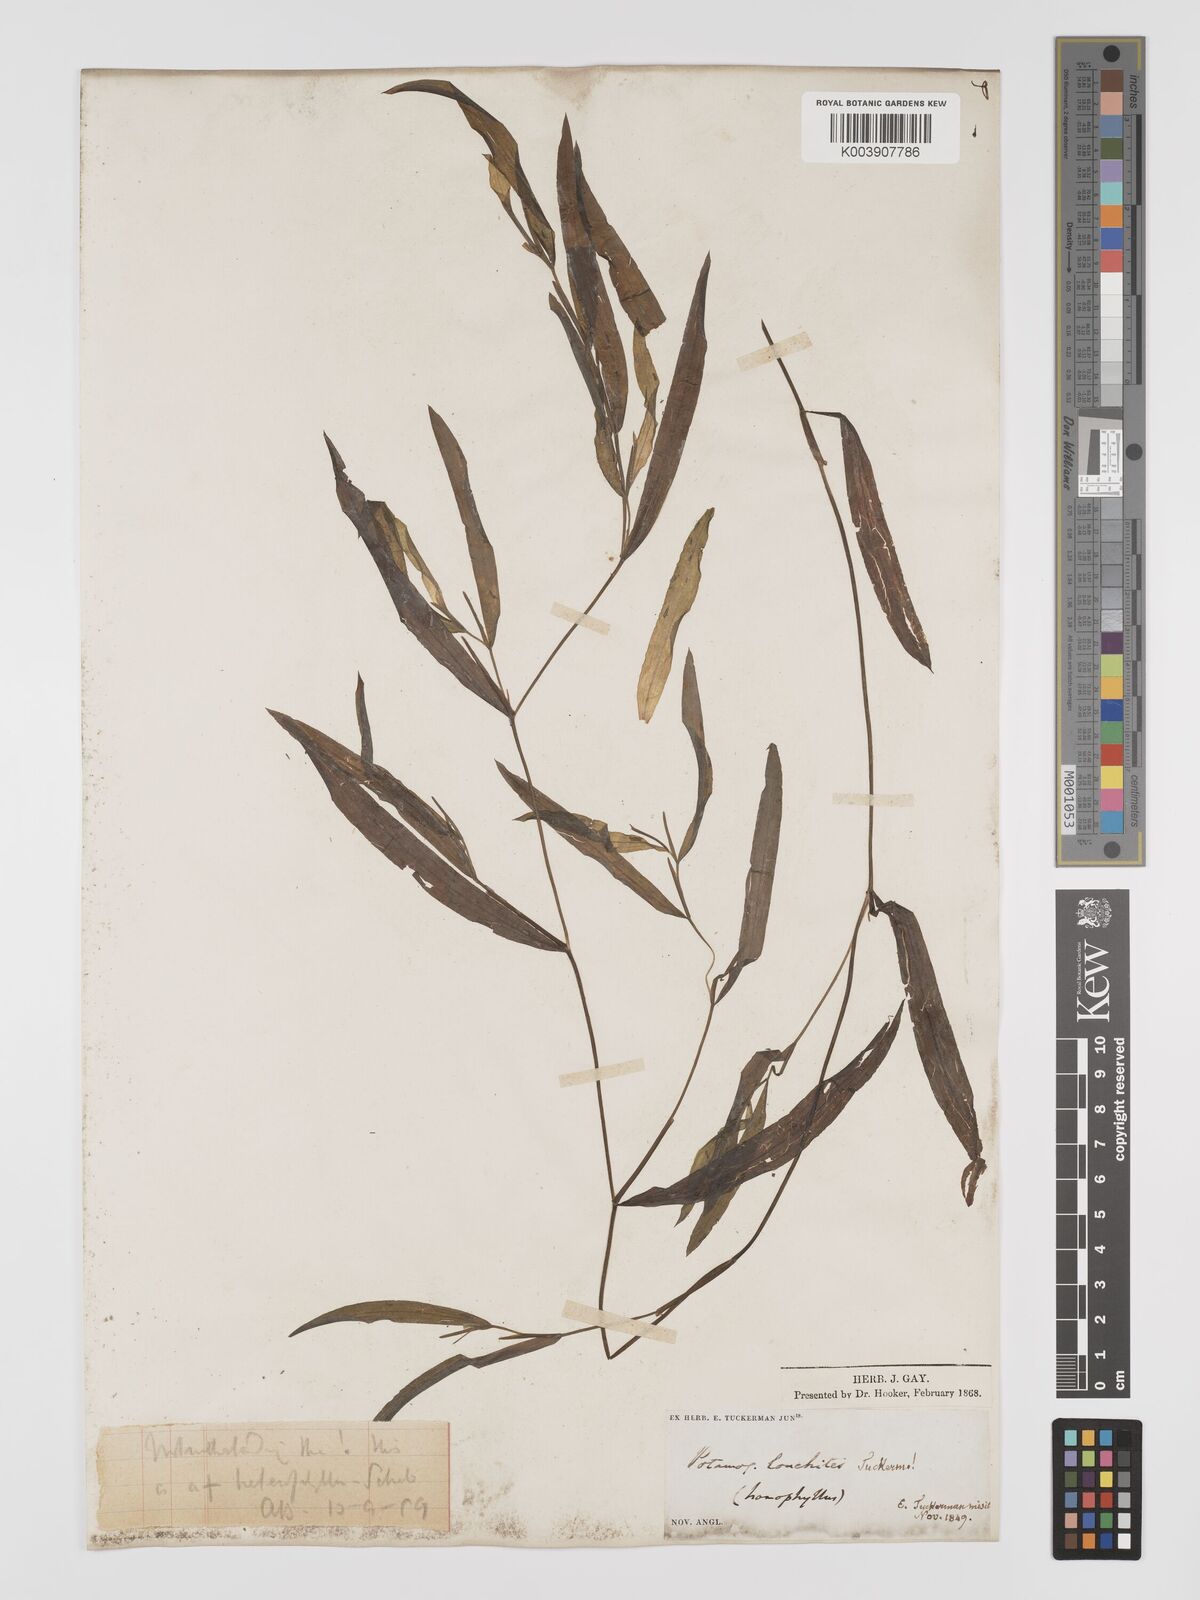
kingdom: Plantae
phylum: Tracheophyta
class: Liliopsida
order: Alismatales
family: Potamogetonaceae
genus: Potamogeton
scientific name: Potamogeton gramineus
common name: Various-leaved pondweed
